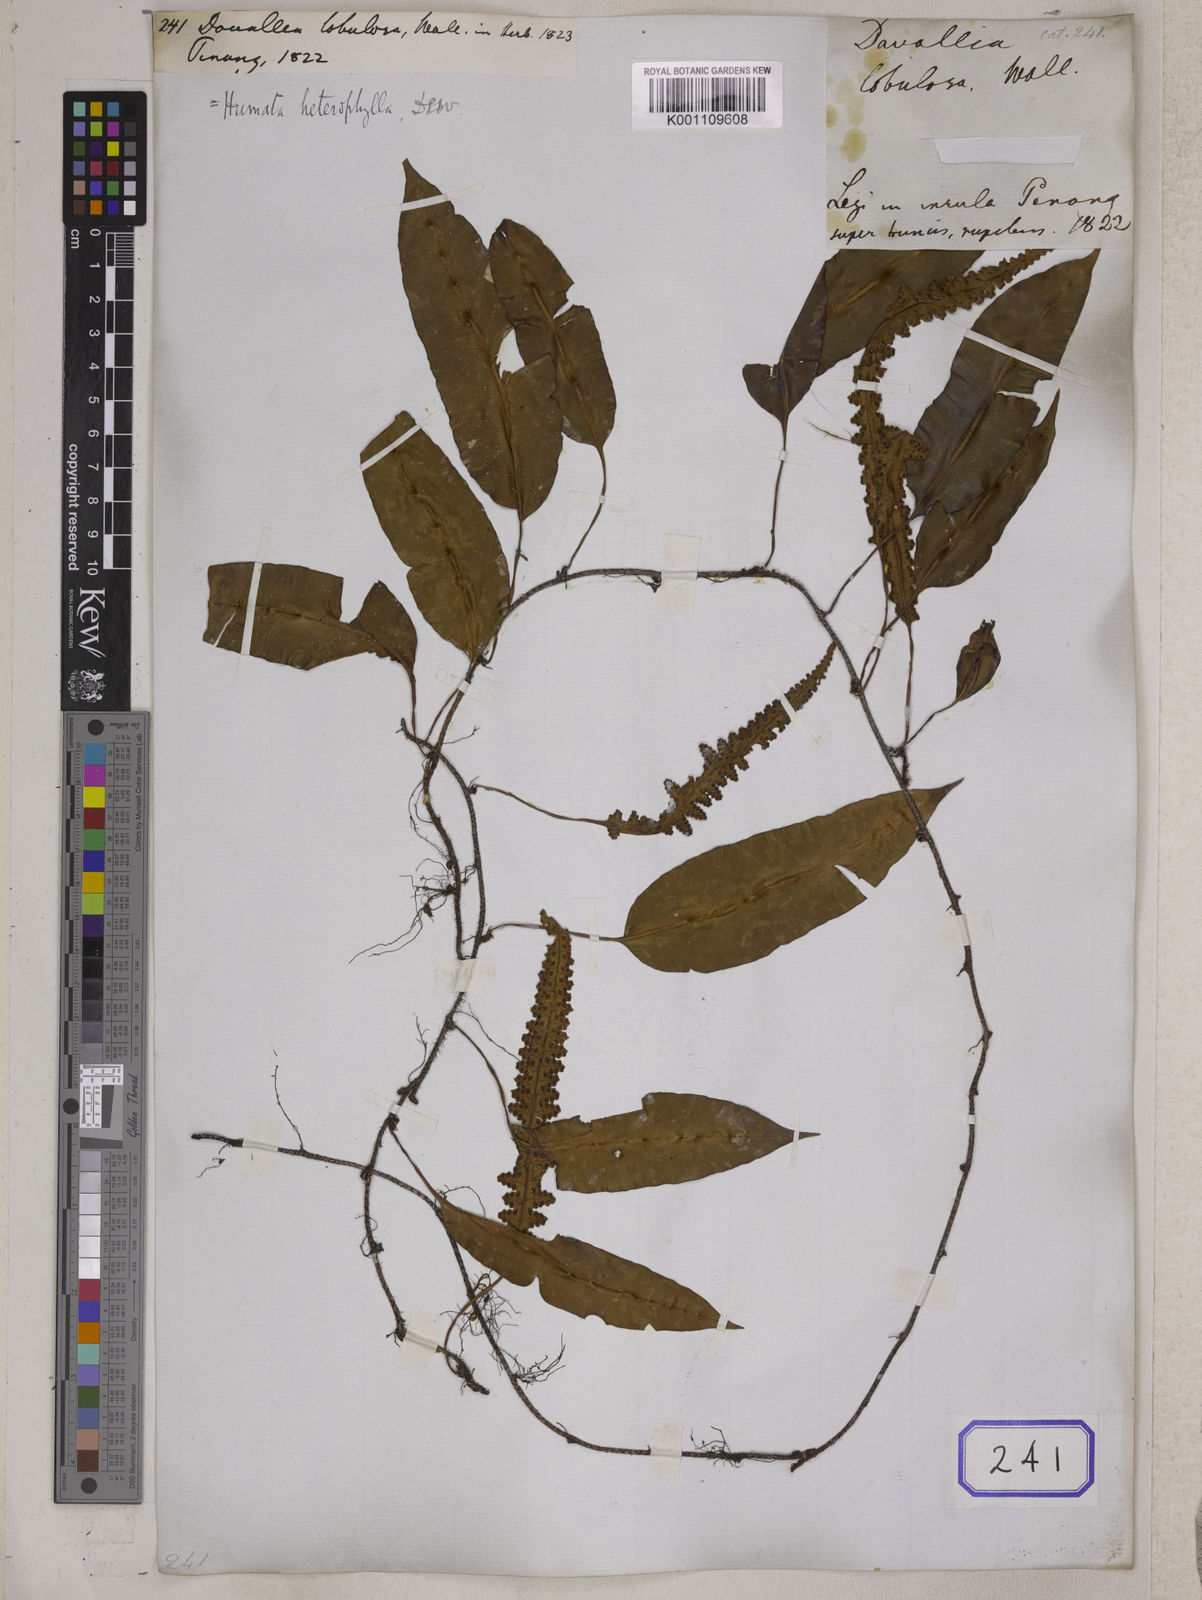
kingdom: Plantae
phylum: Tracheophyta
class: Polypodiopsida
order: Polypodiales
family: Davalliaceae
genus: Davallia
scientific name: Davallia heterophylla
